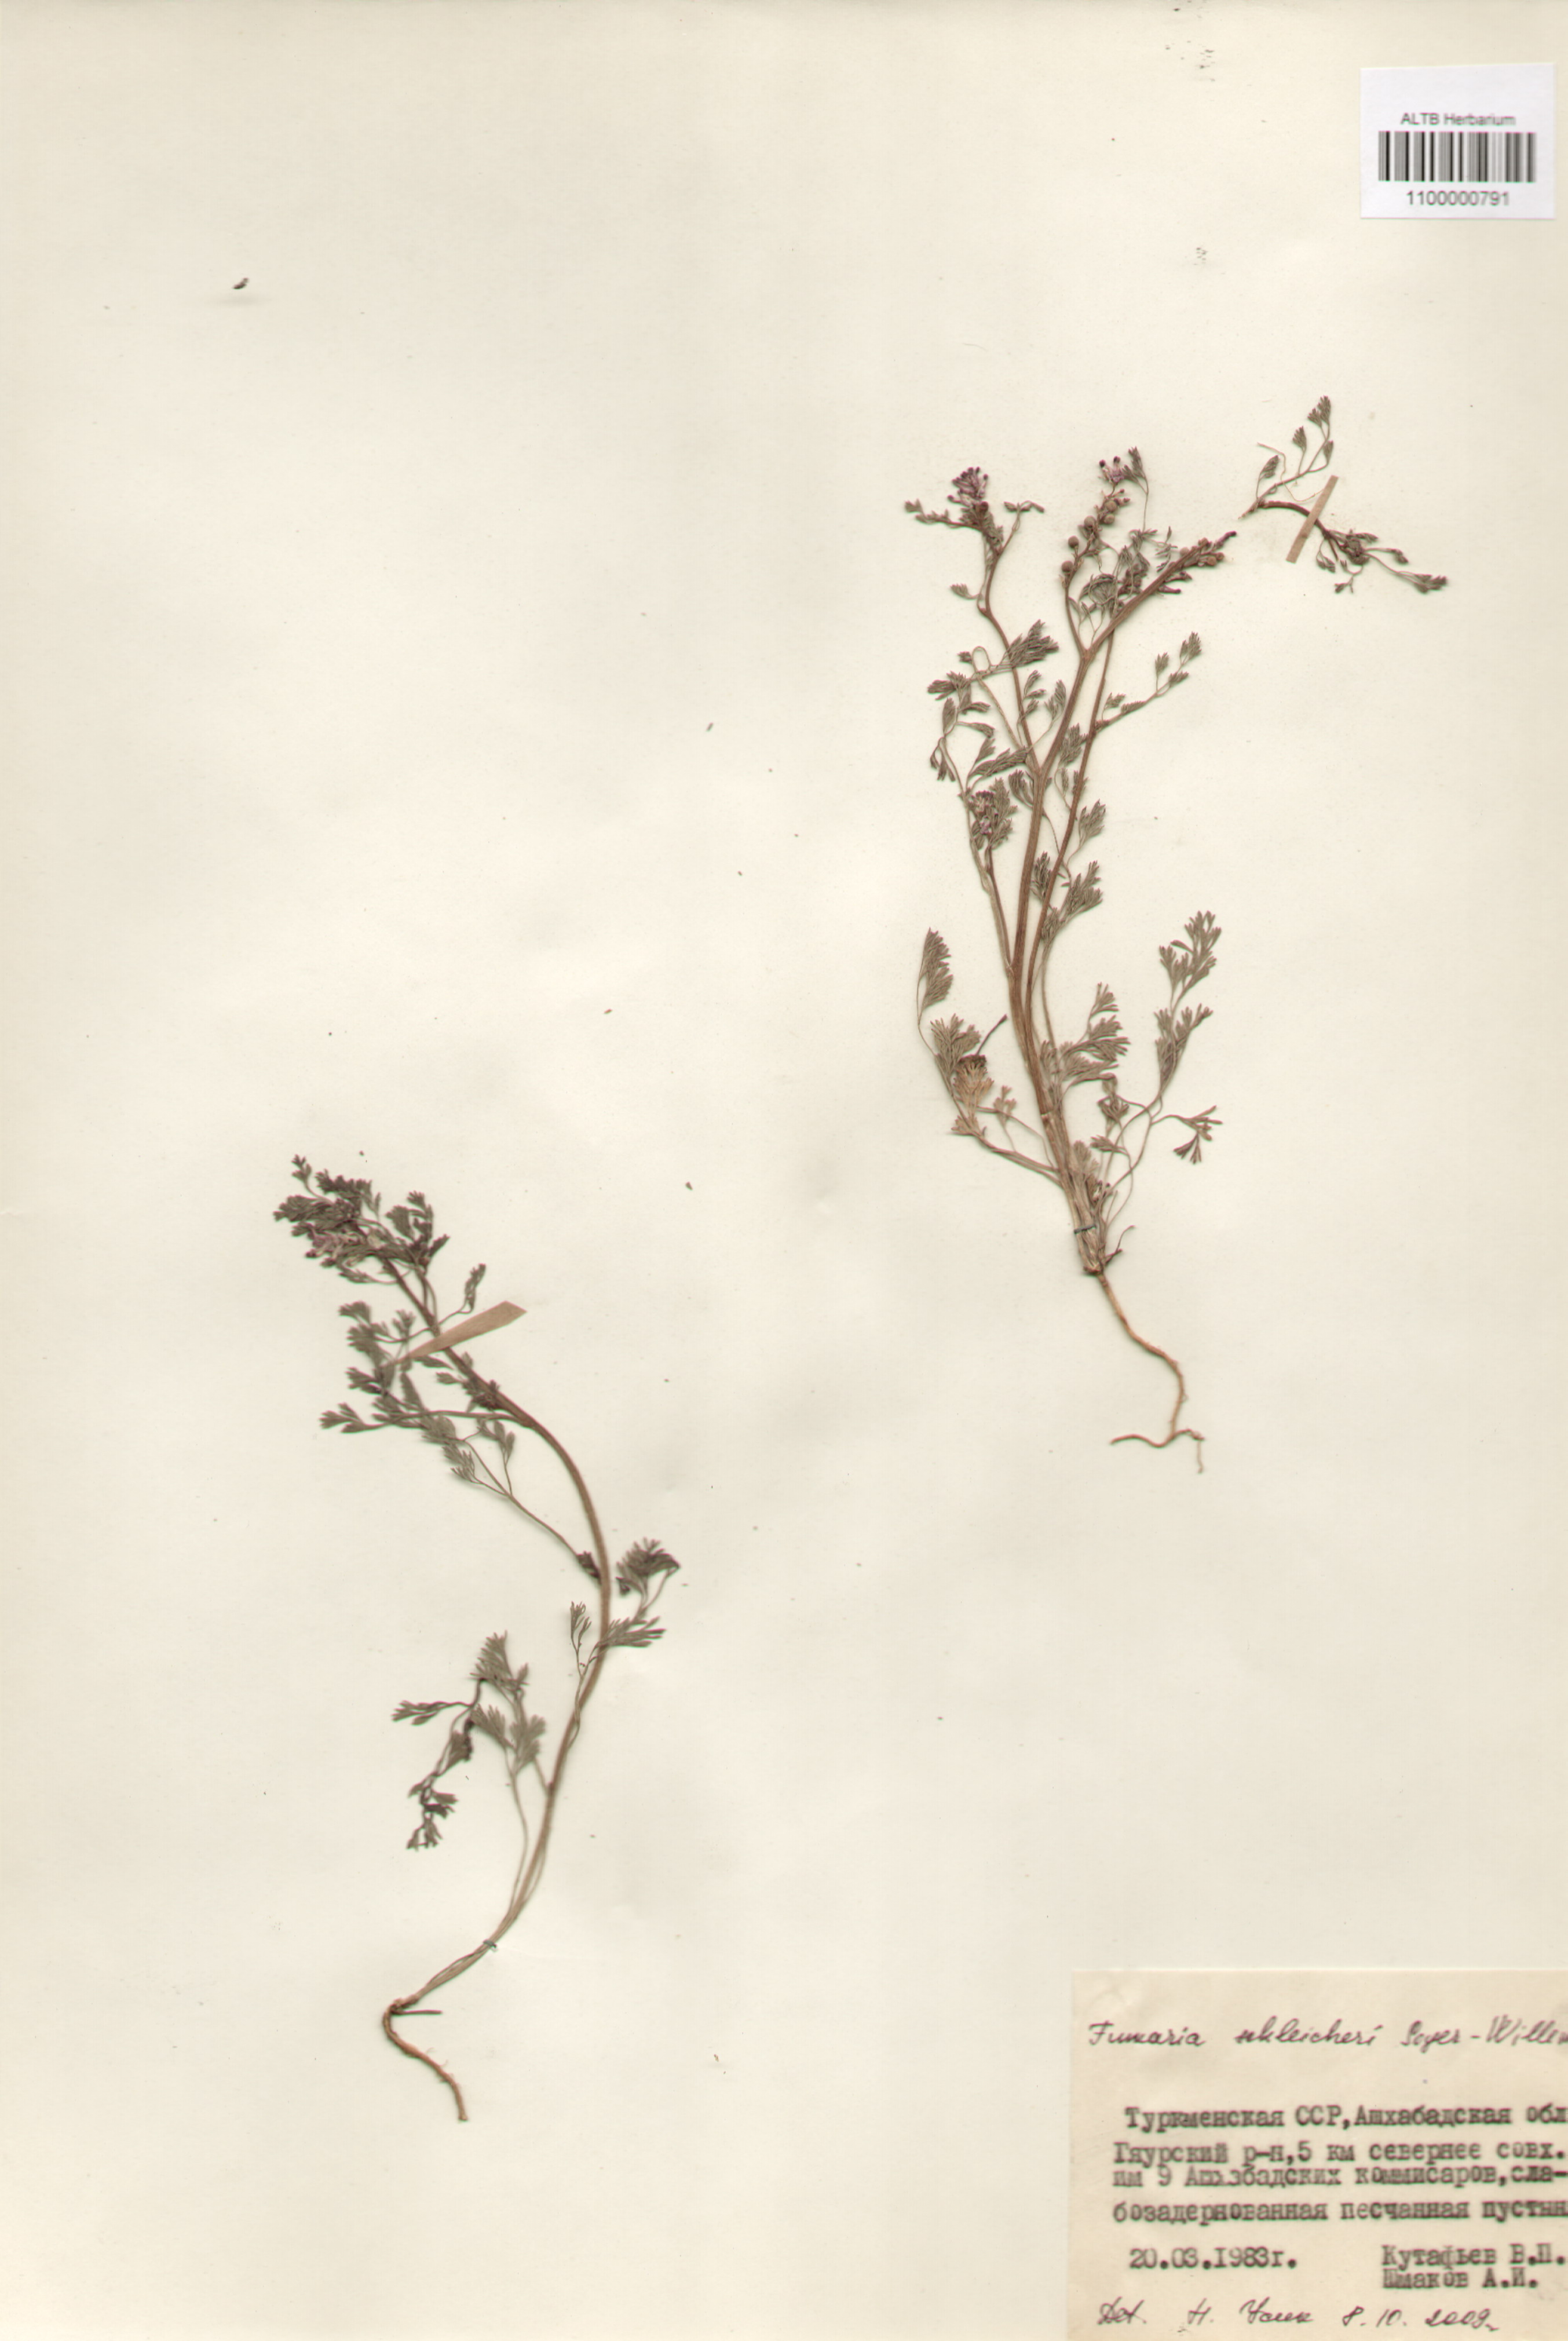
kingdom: Plantae
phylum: Tracheophyta
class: Magnoliopsida
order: Ranunculales
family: Papaveraceae
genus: Fumaria
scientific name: Fumaria schleicheri
